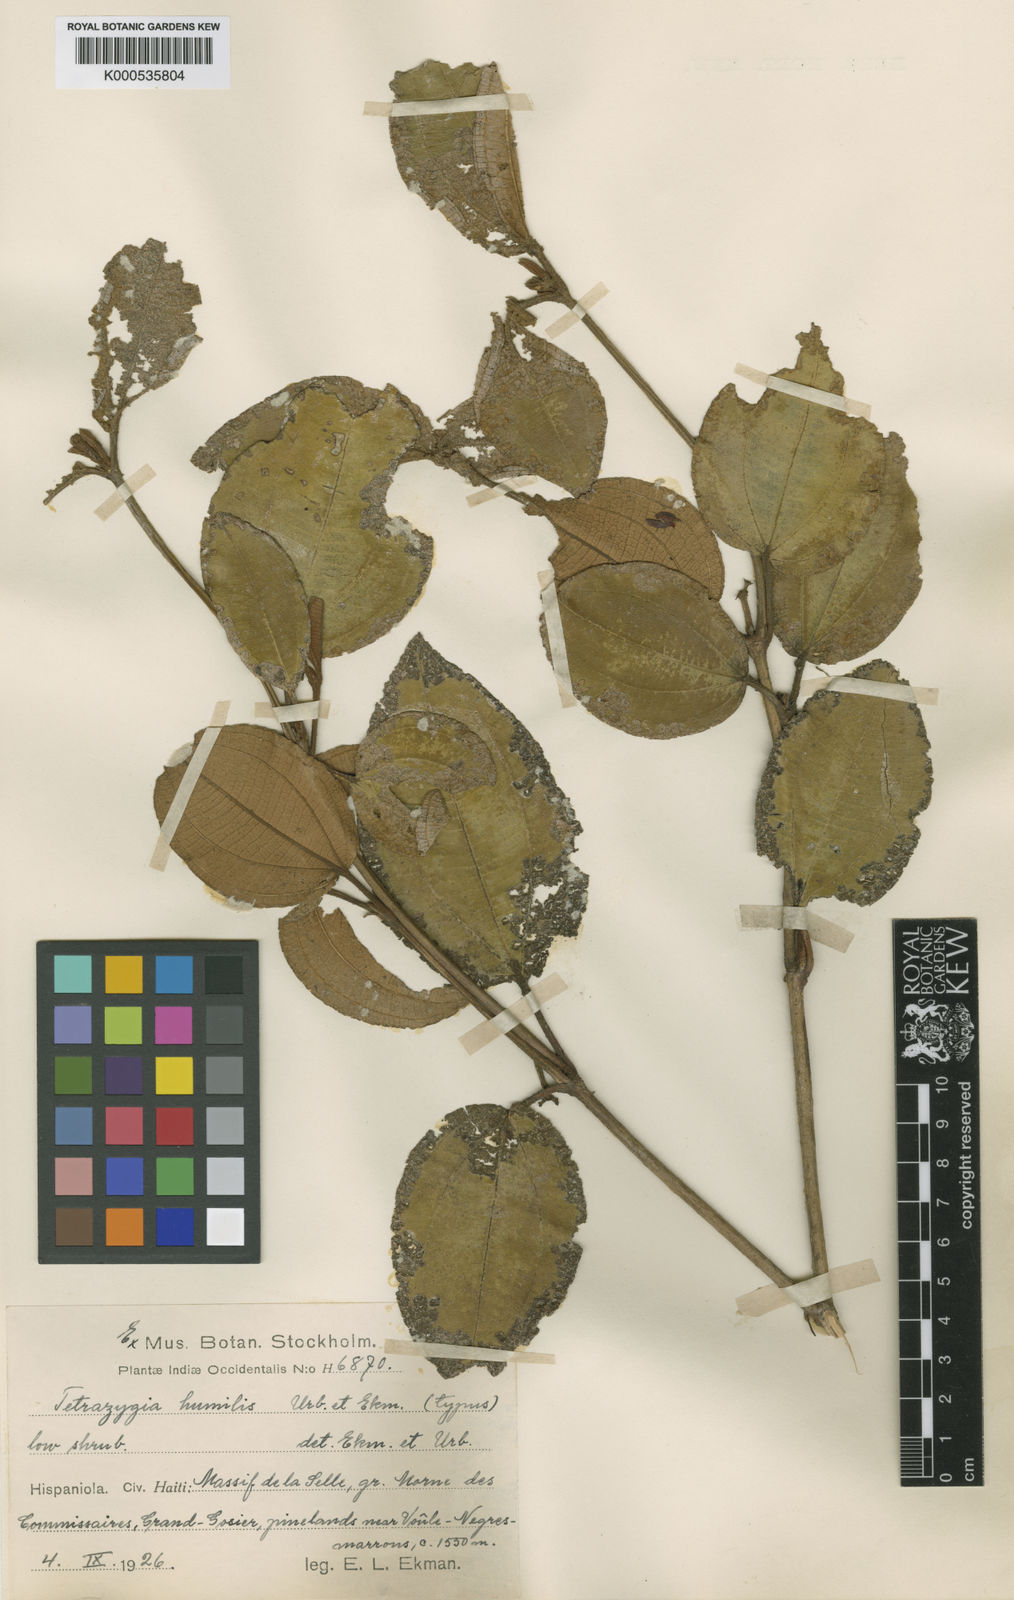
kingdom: Plantae
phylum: Tracheophyta
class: Magnoliopsida
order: Myrtales
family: Melastomataceae
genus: Miconia
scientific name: Miconia macrocarpa
